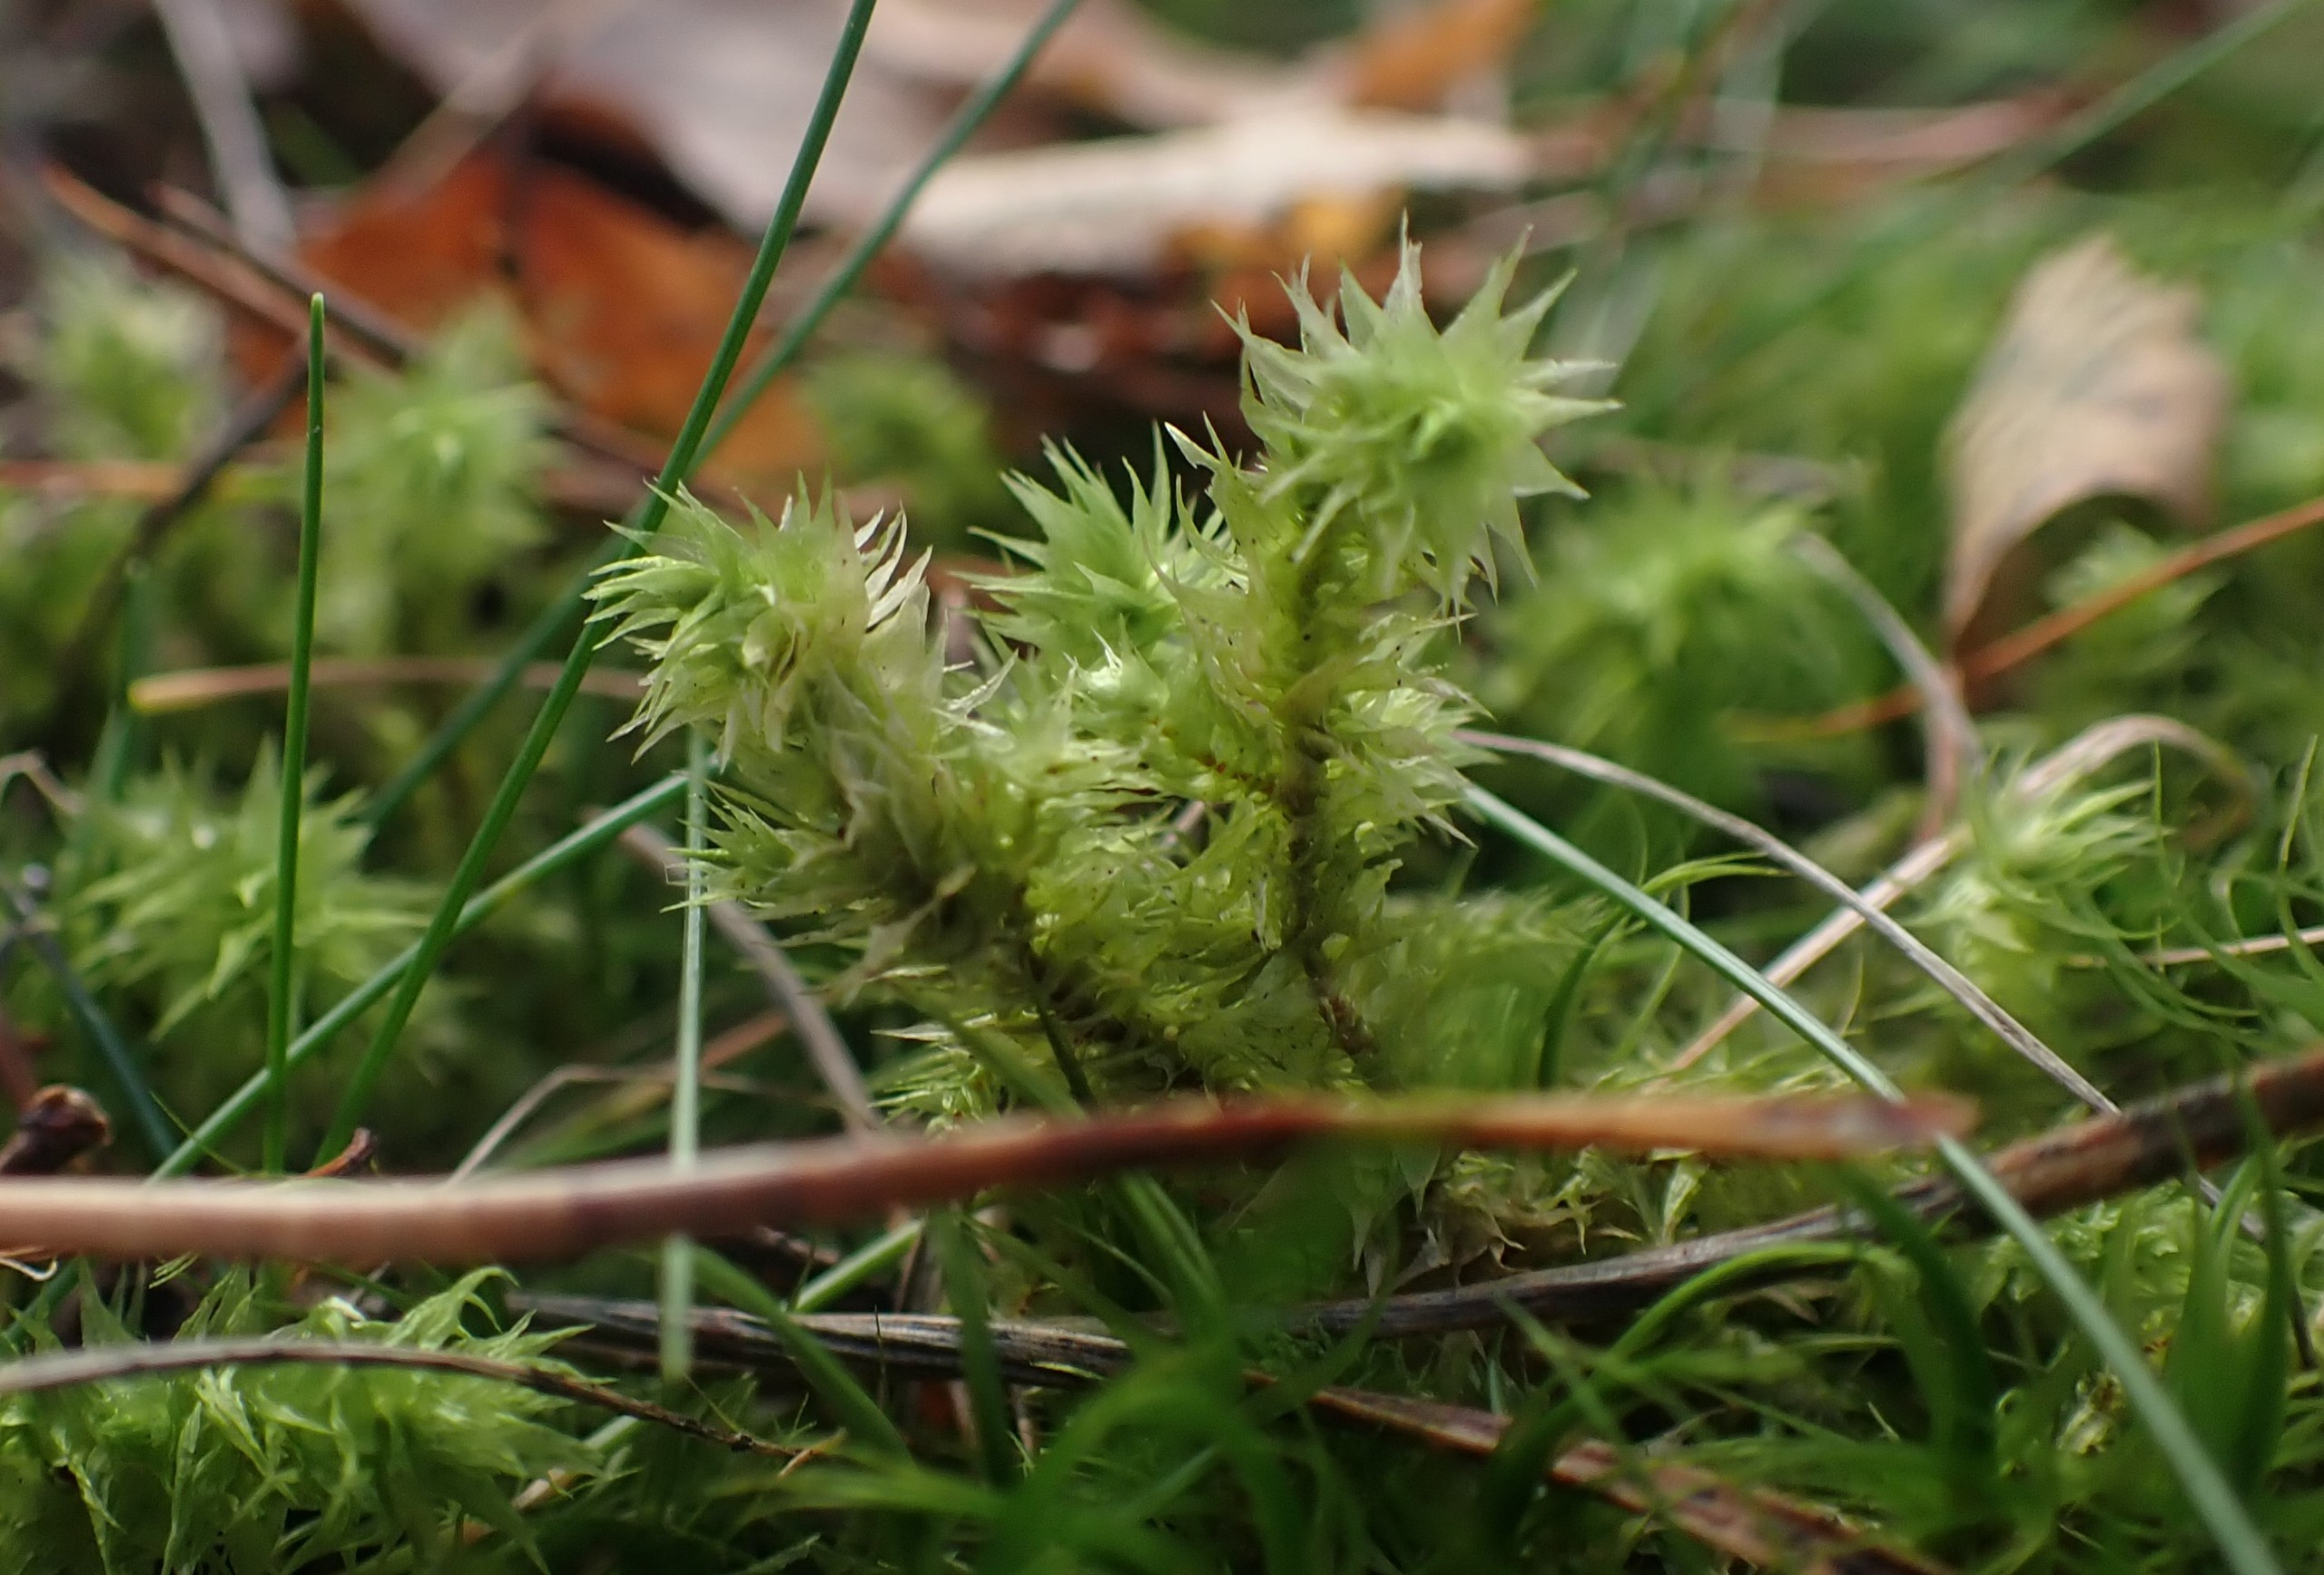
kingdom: Plantae
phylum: Bryophyta
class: Bryopsida
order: Hypnales
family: Hylocomiaceae
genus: Hylocomiadelphus
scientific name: Hylocomiadelphus triquetrus
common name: Stor kransemos
